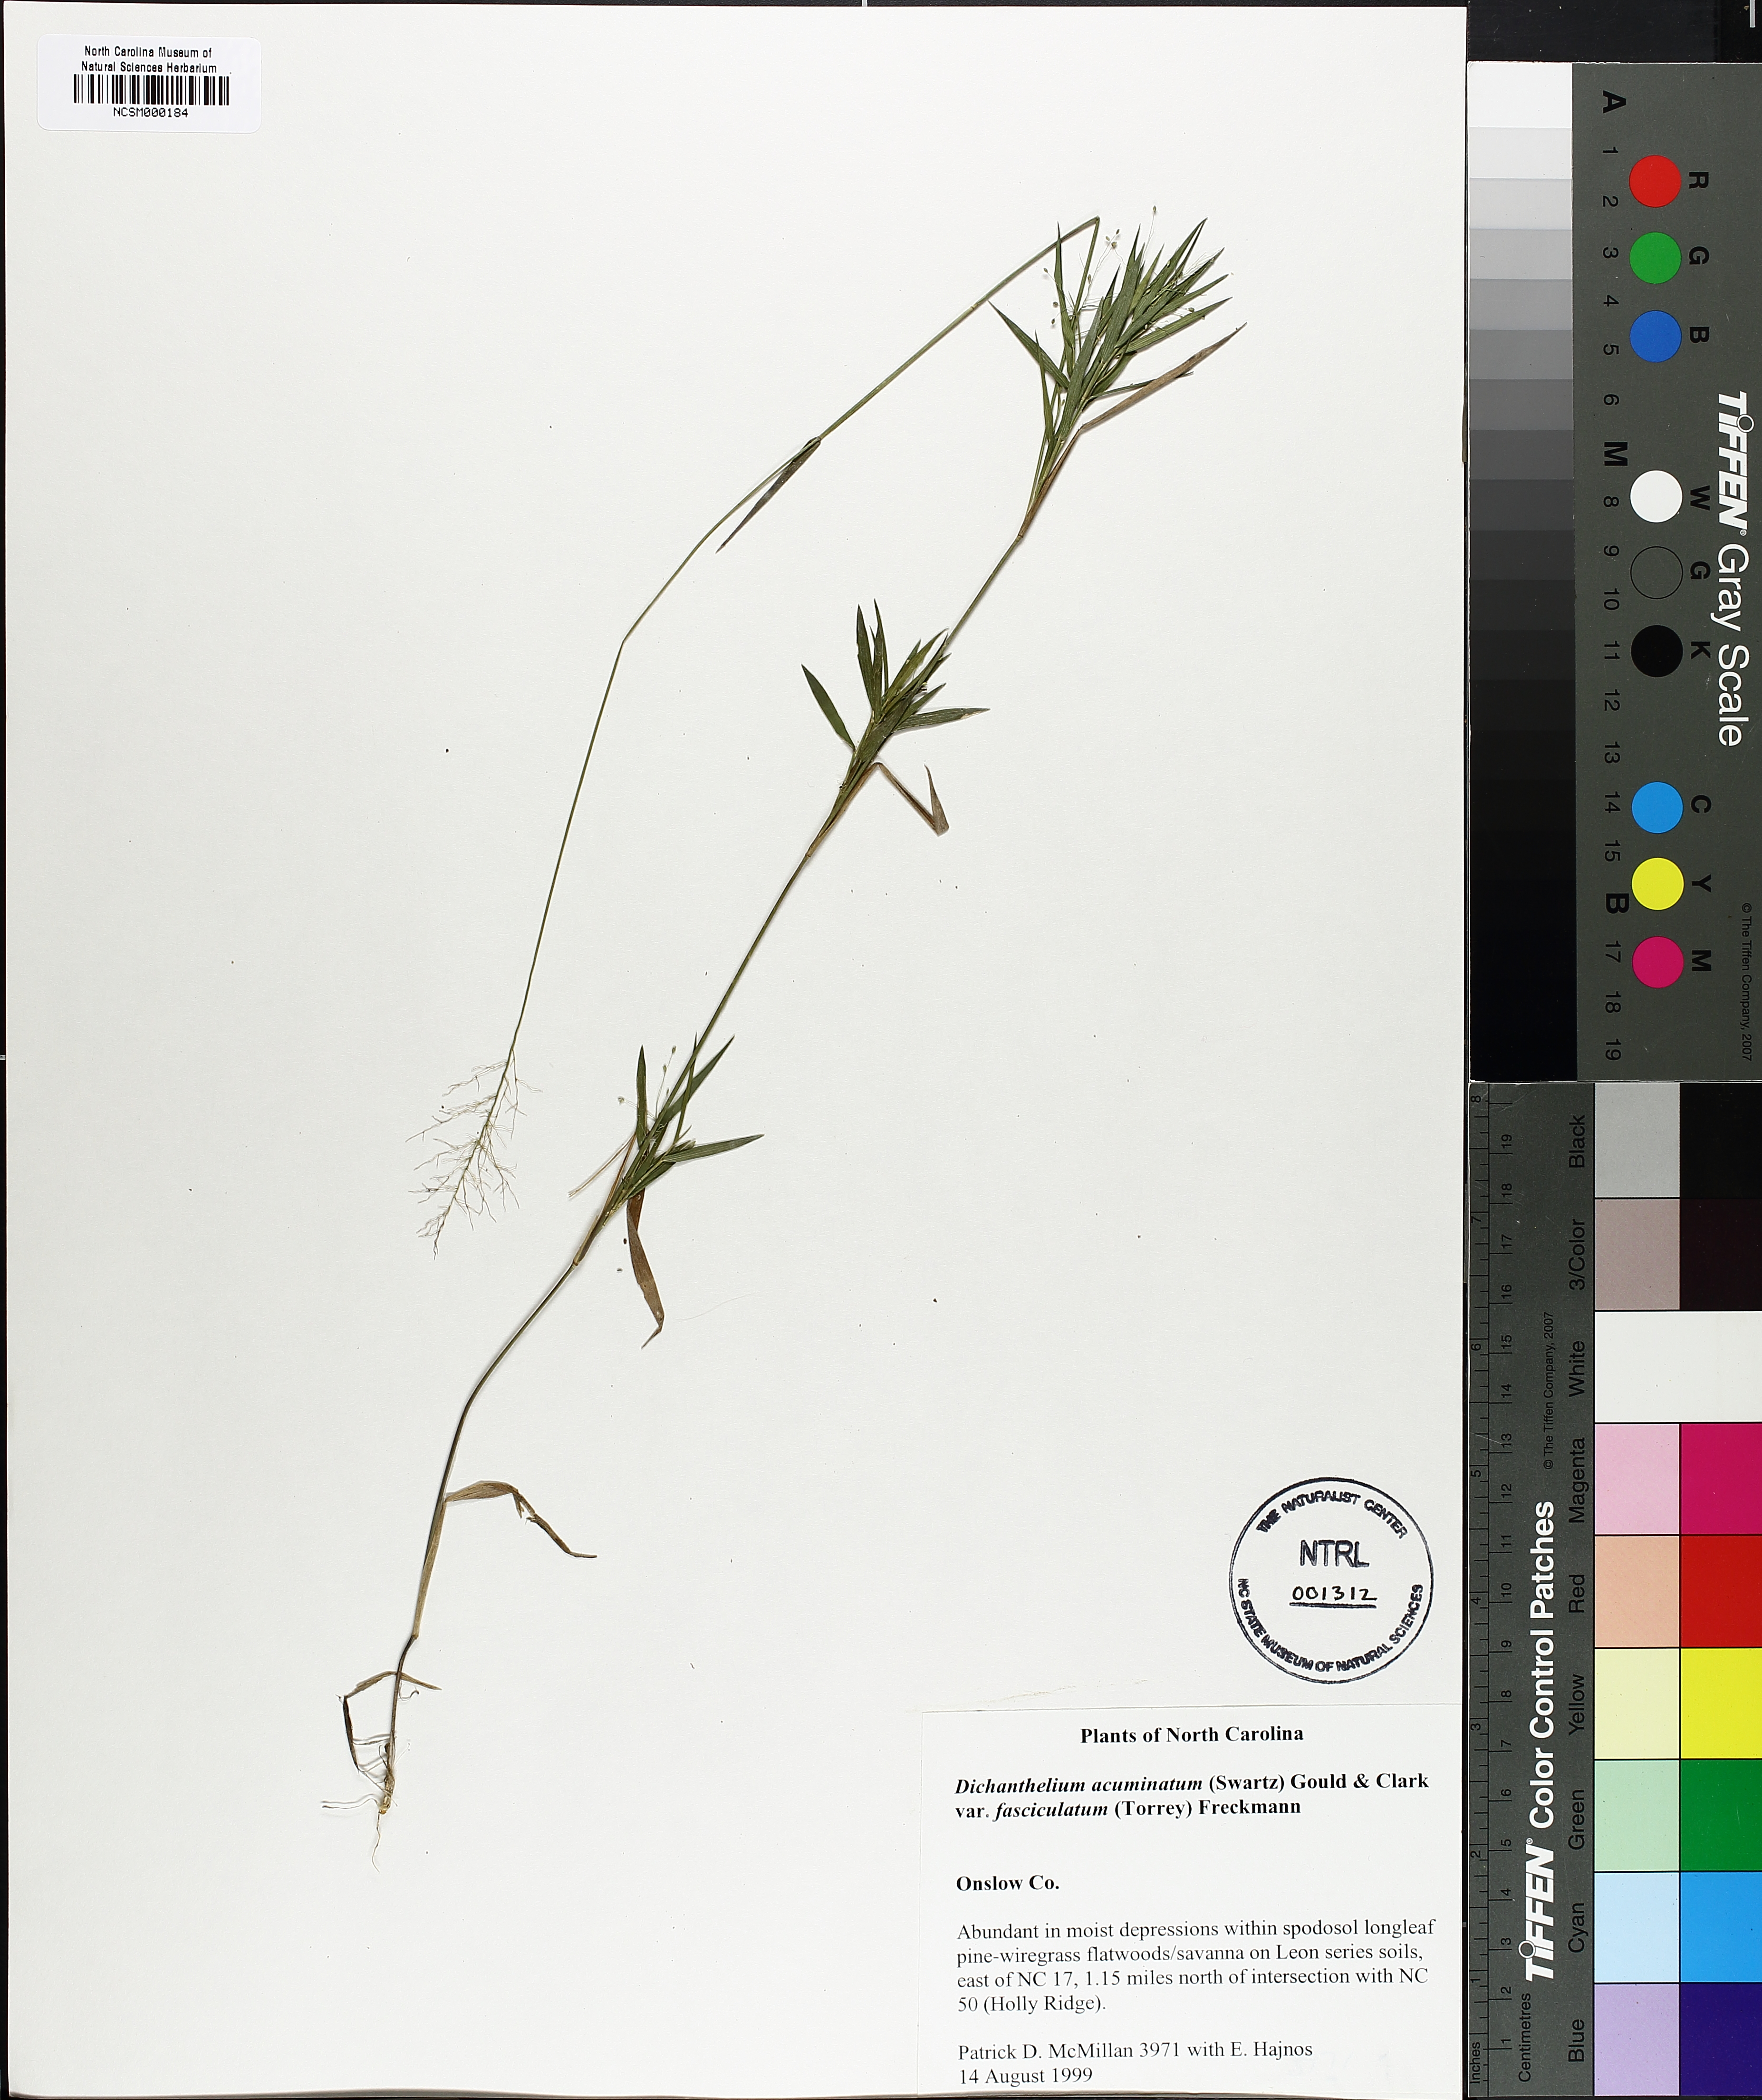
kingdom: Plantae
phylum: Tracheophyta
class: Liliopsida
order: Poales
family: Poaceae
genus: Dichanthelium
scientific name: Dichanthelium lanuginosum
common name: Woolly panicgrass
